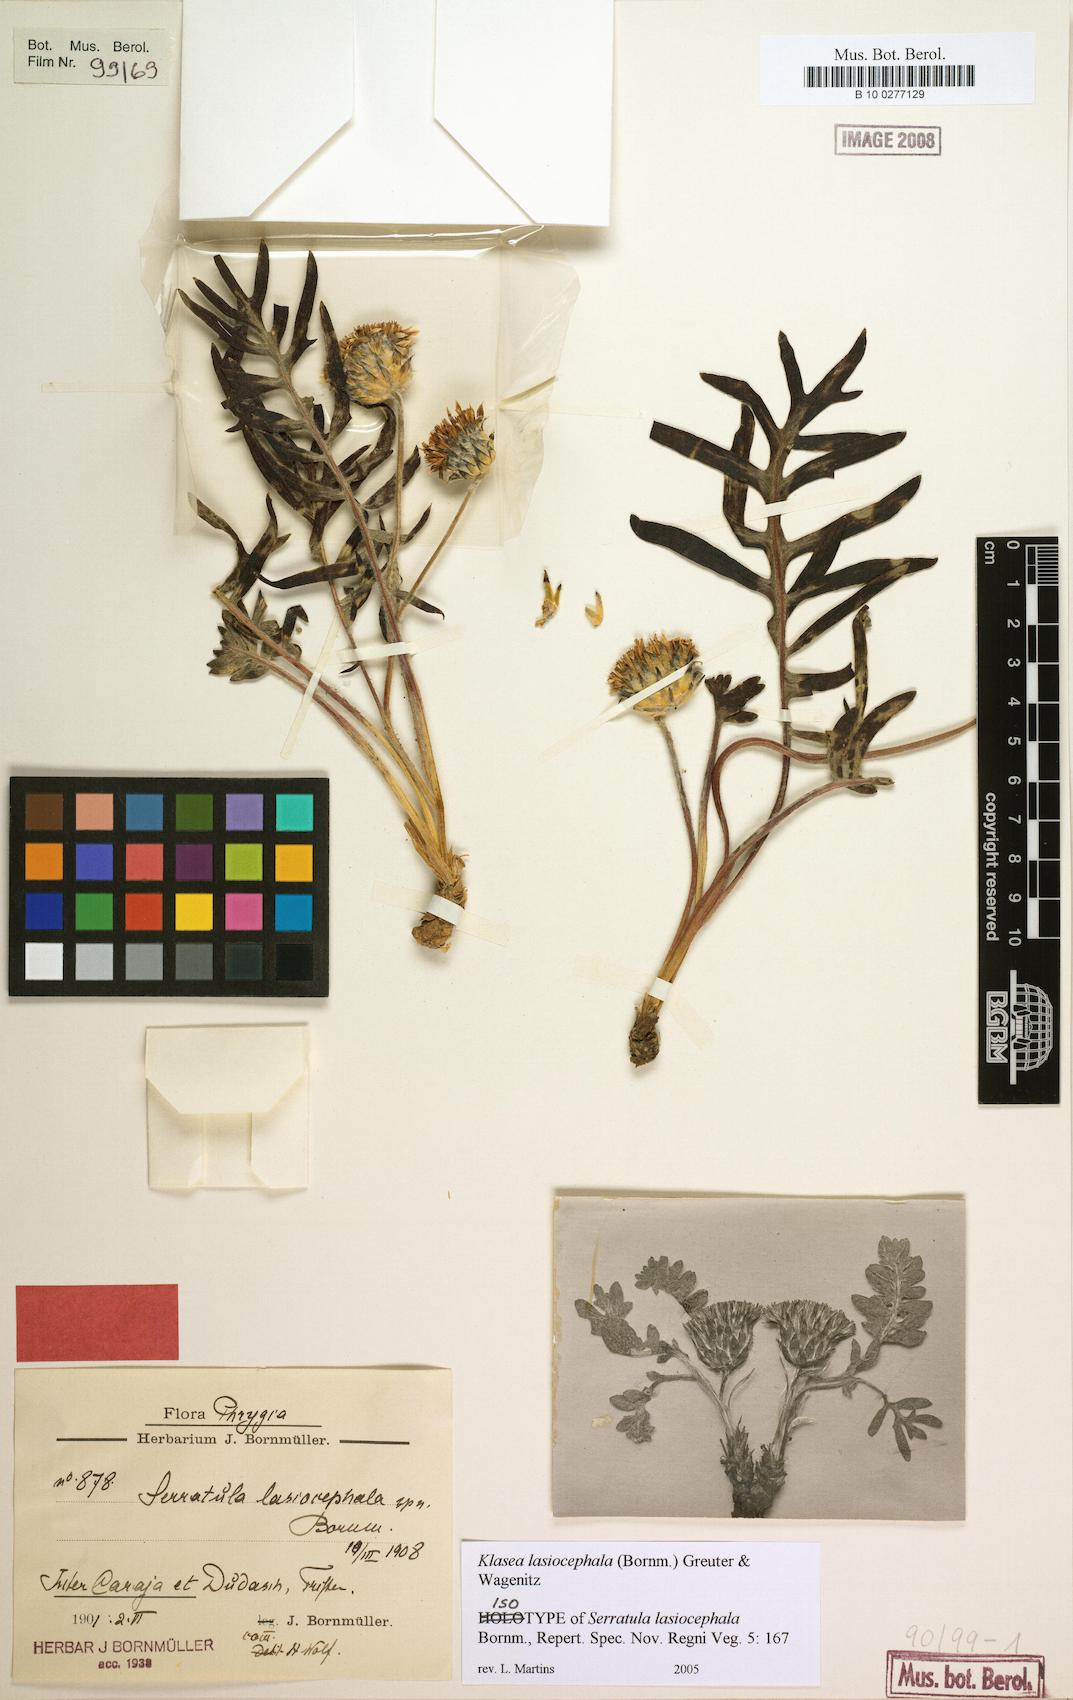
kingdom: Plantae
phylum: Tracheophyta
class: Magnoliopsida
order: Asterales
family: Asteraceae
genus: Klasea
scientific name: Klasea lasiocephala
